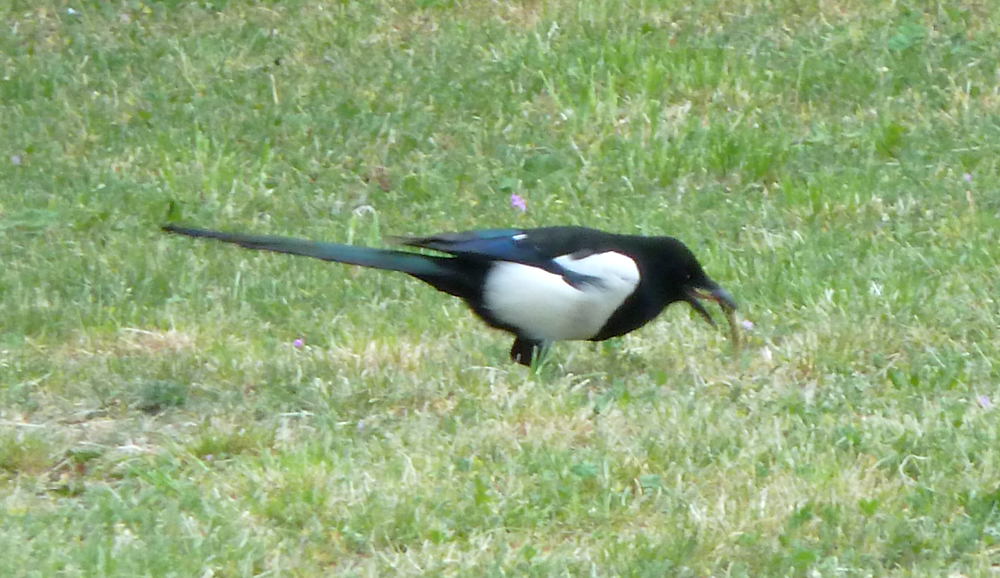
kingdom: Animalia
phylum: Chordata
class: Aves
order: Passeriformes
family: Corvidae
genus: Pica
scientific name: Pica pica
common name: Eurasian magpie
